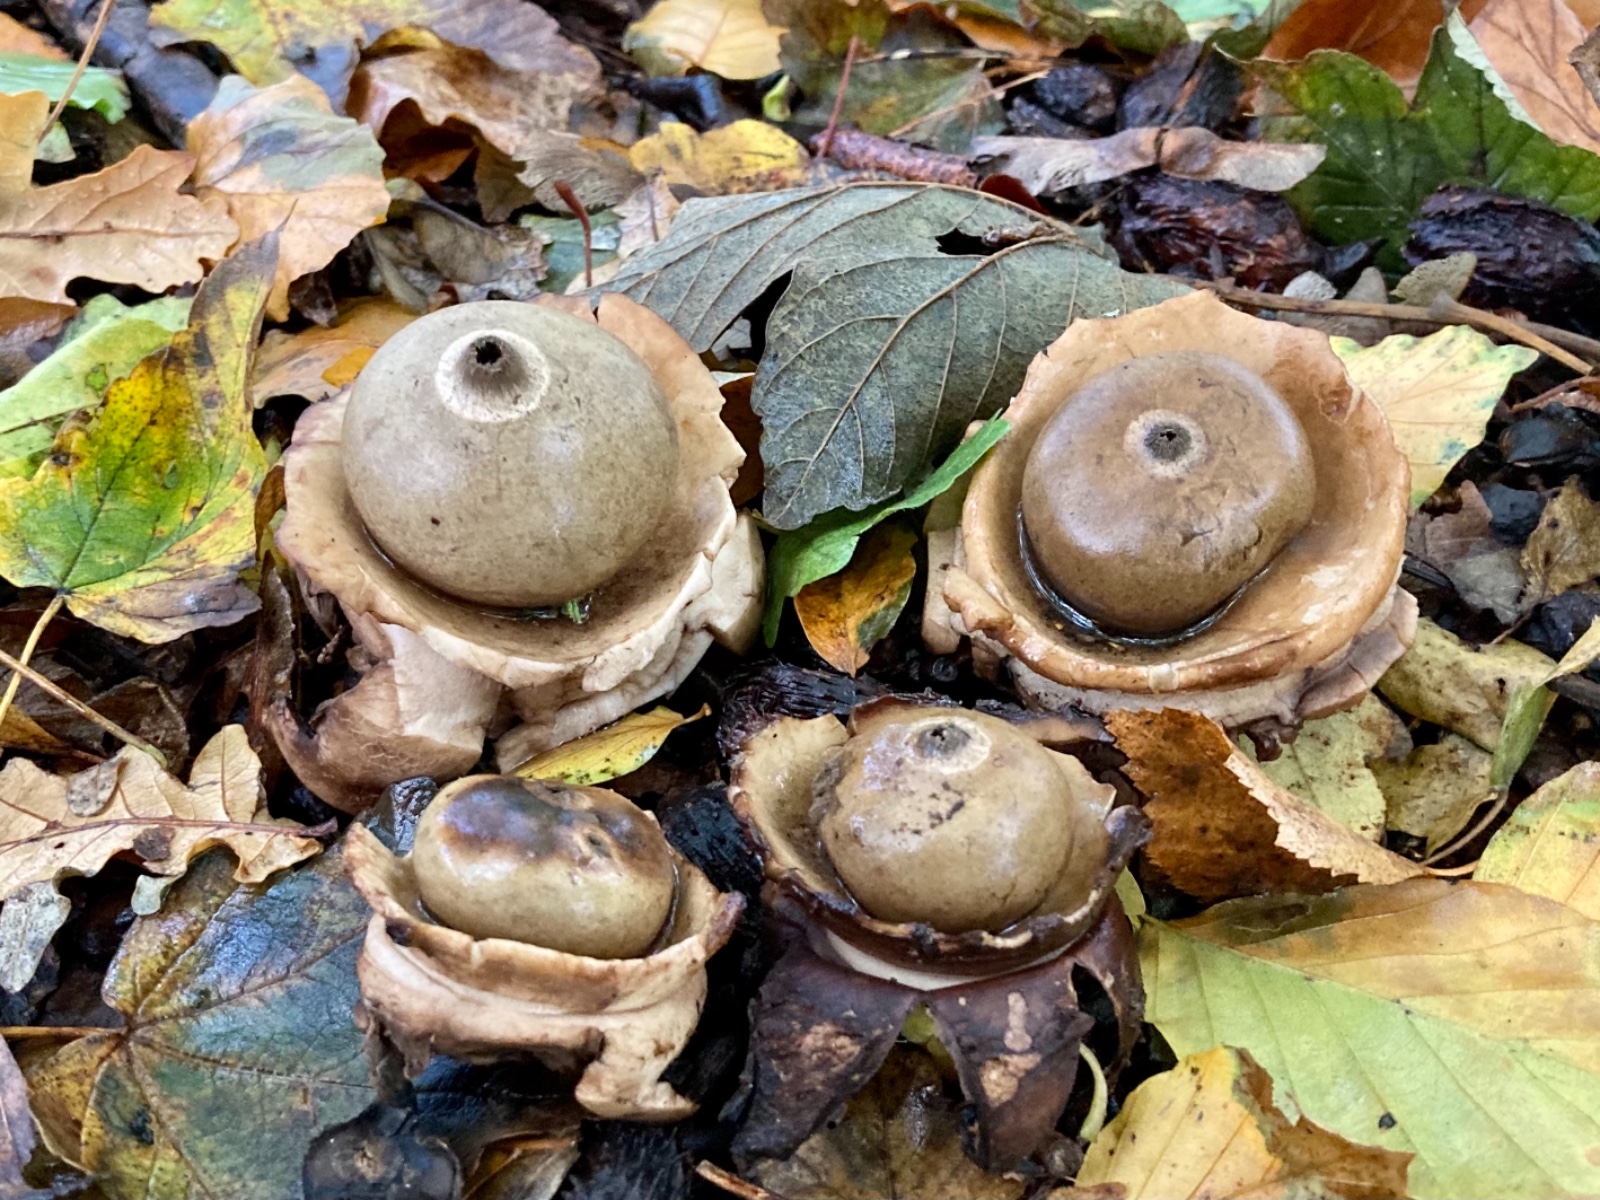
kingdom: Fungi
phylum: Basidiomycota
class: Agaricomycetes
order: Geastrales
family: Geastraceae
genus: Geastrum
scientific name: Geastrum michelianum
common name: kødet stjernebold
